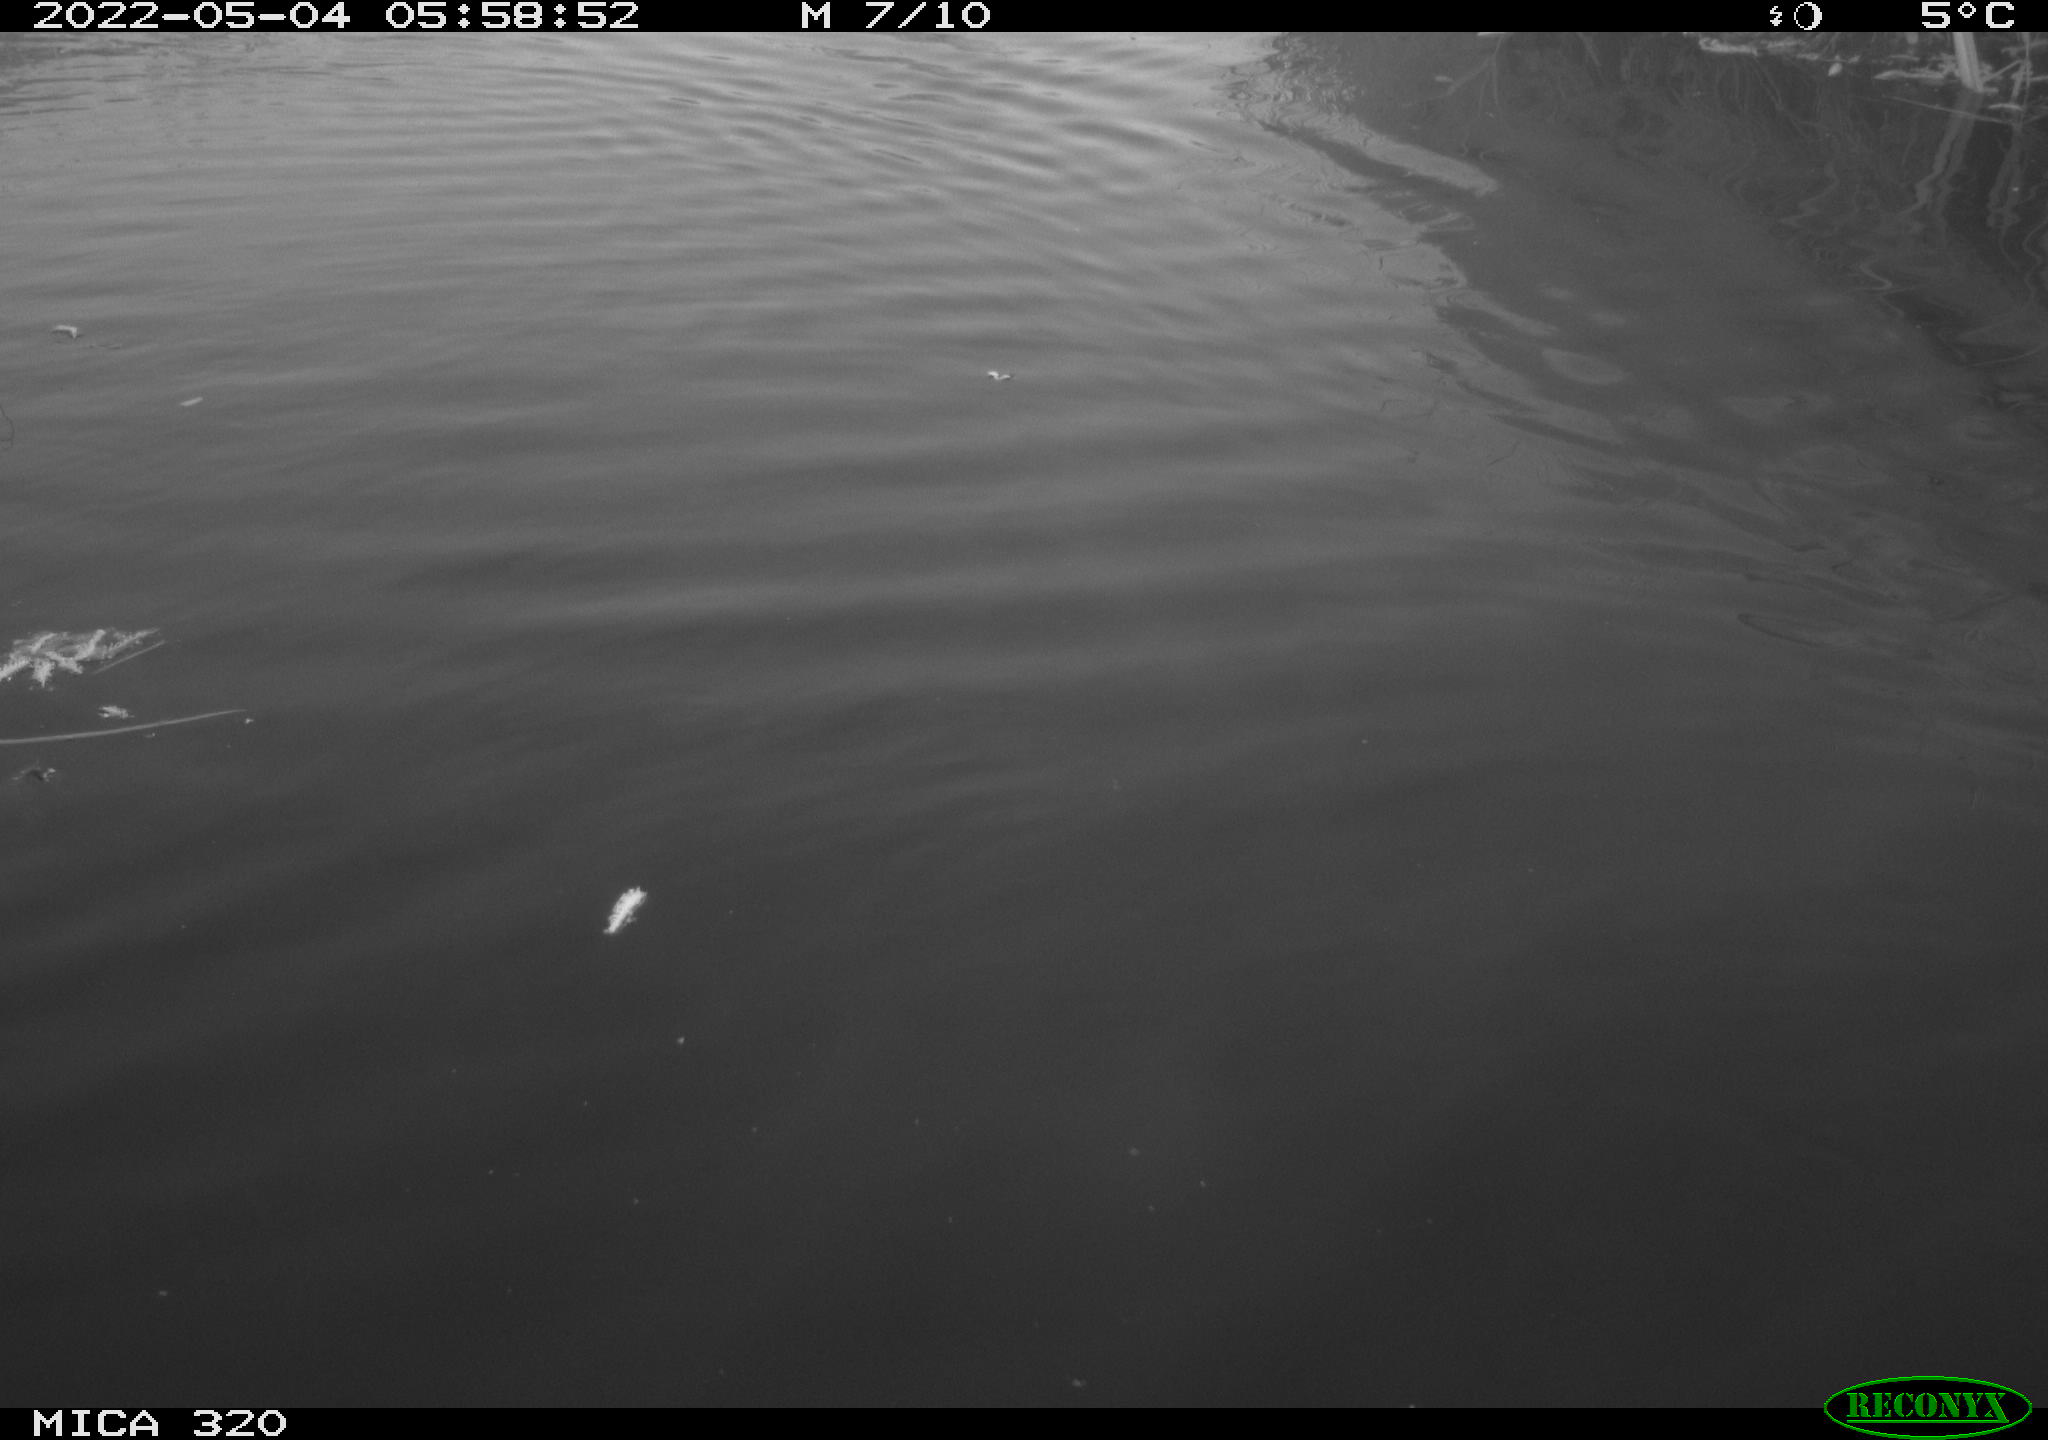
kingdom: Animalia
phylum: Chordata
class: Aves
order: Anseriformes
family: Anatidae
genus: Anas
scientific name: Anas platyrhynchos
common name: Mallard
